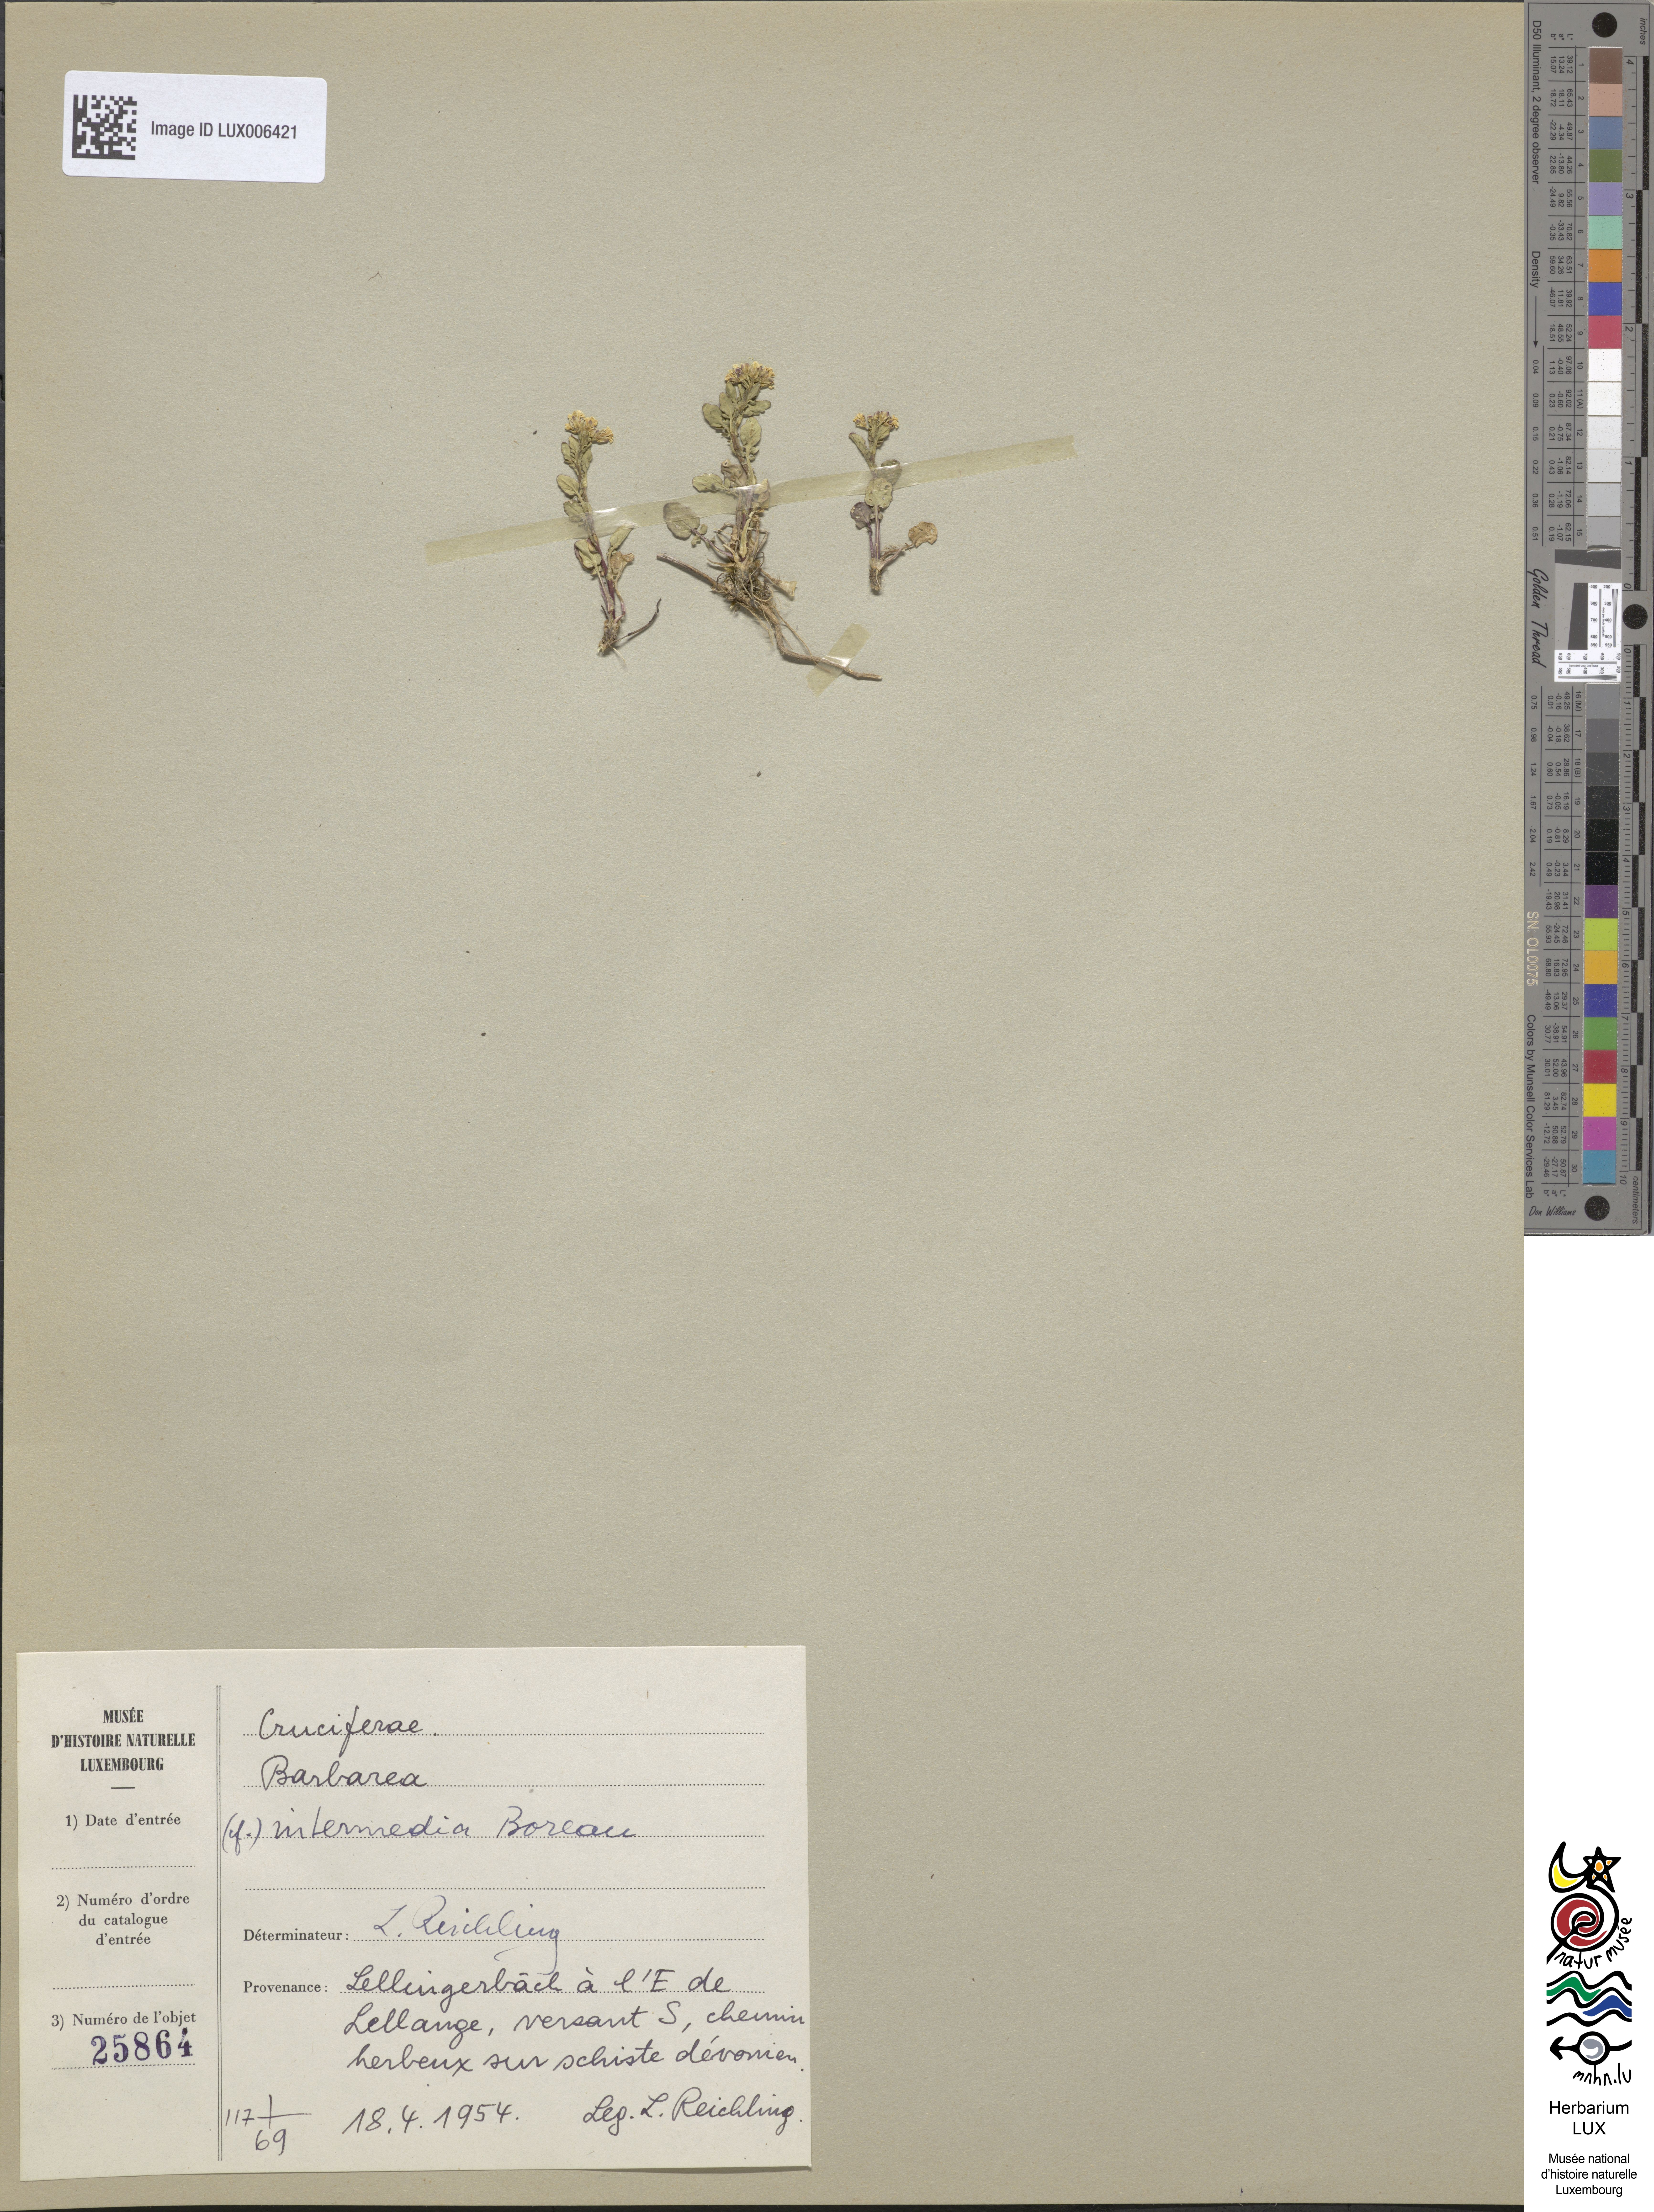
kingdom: Plantae
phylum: Tracheophyta
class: Magnoliopsida
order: Brassicales
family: Brassicaceae
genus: Barbarea
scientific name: Barbarea intermedia
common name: Medium-flowered winter-cress
